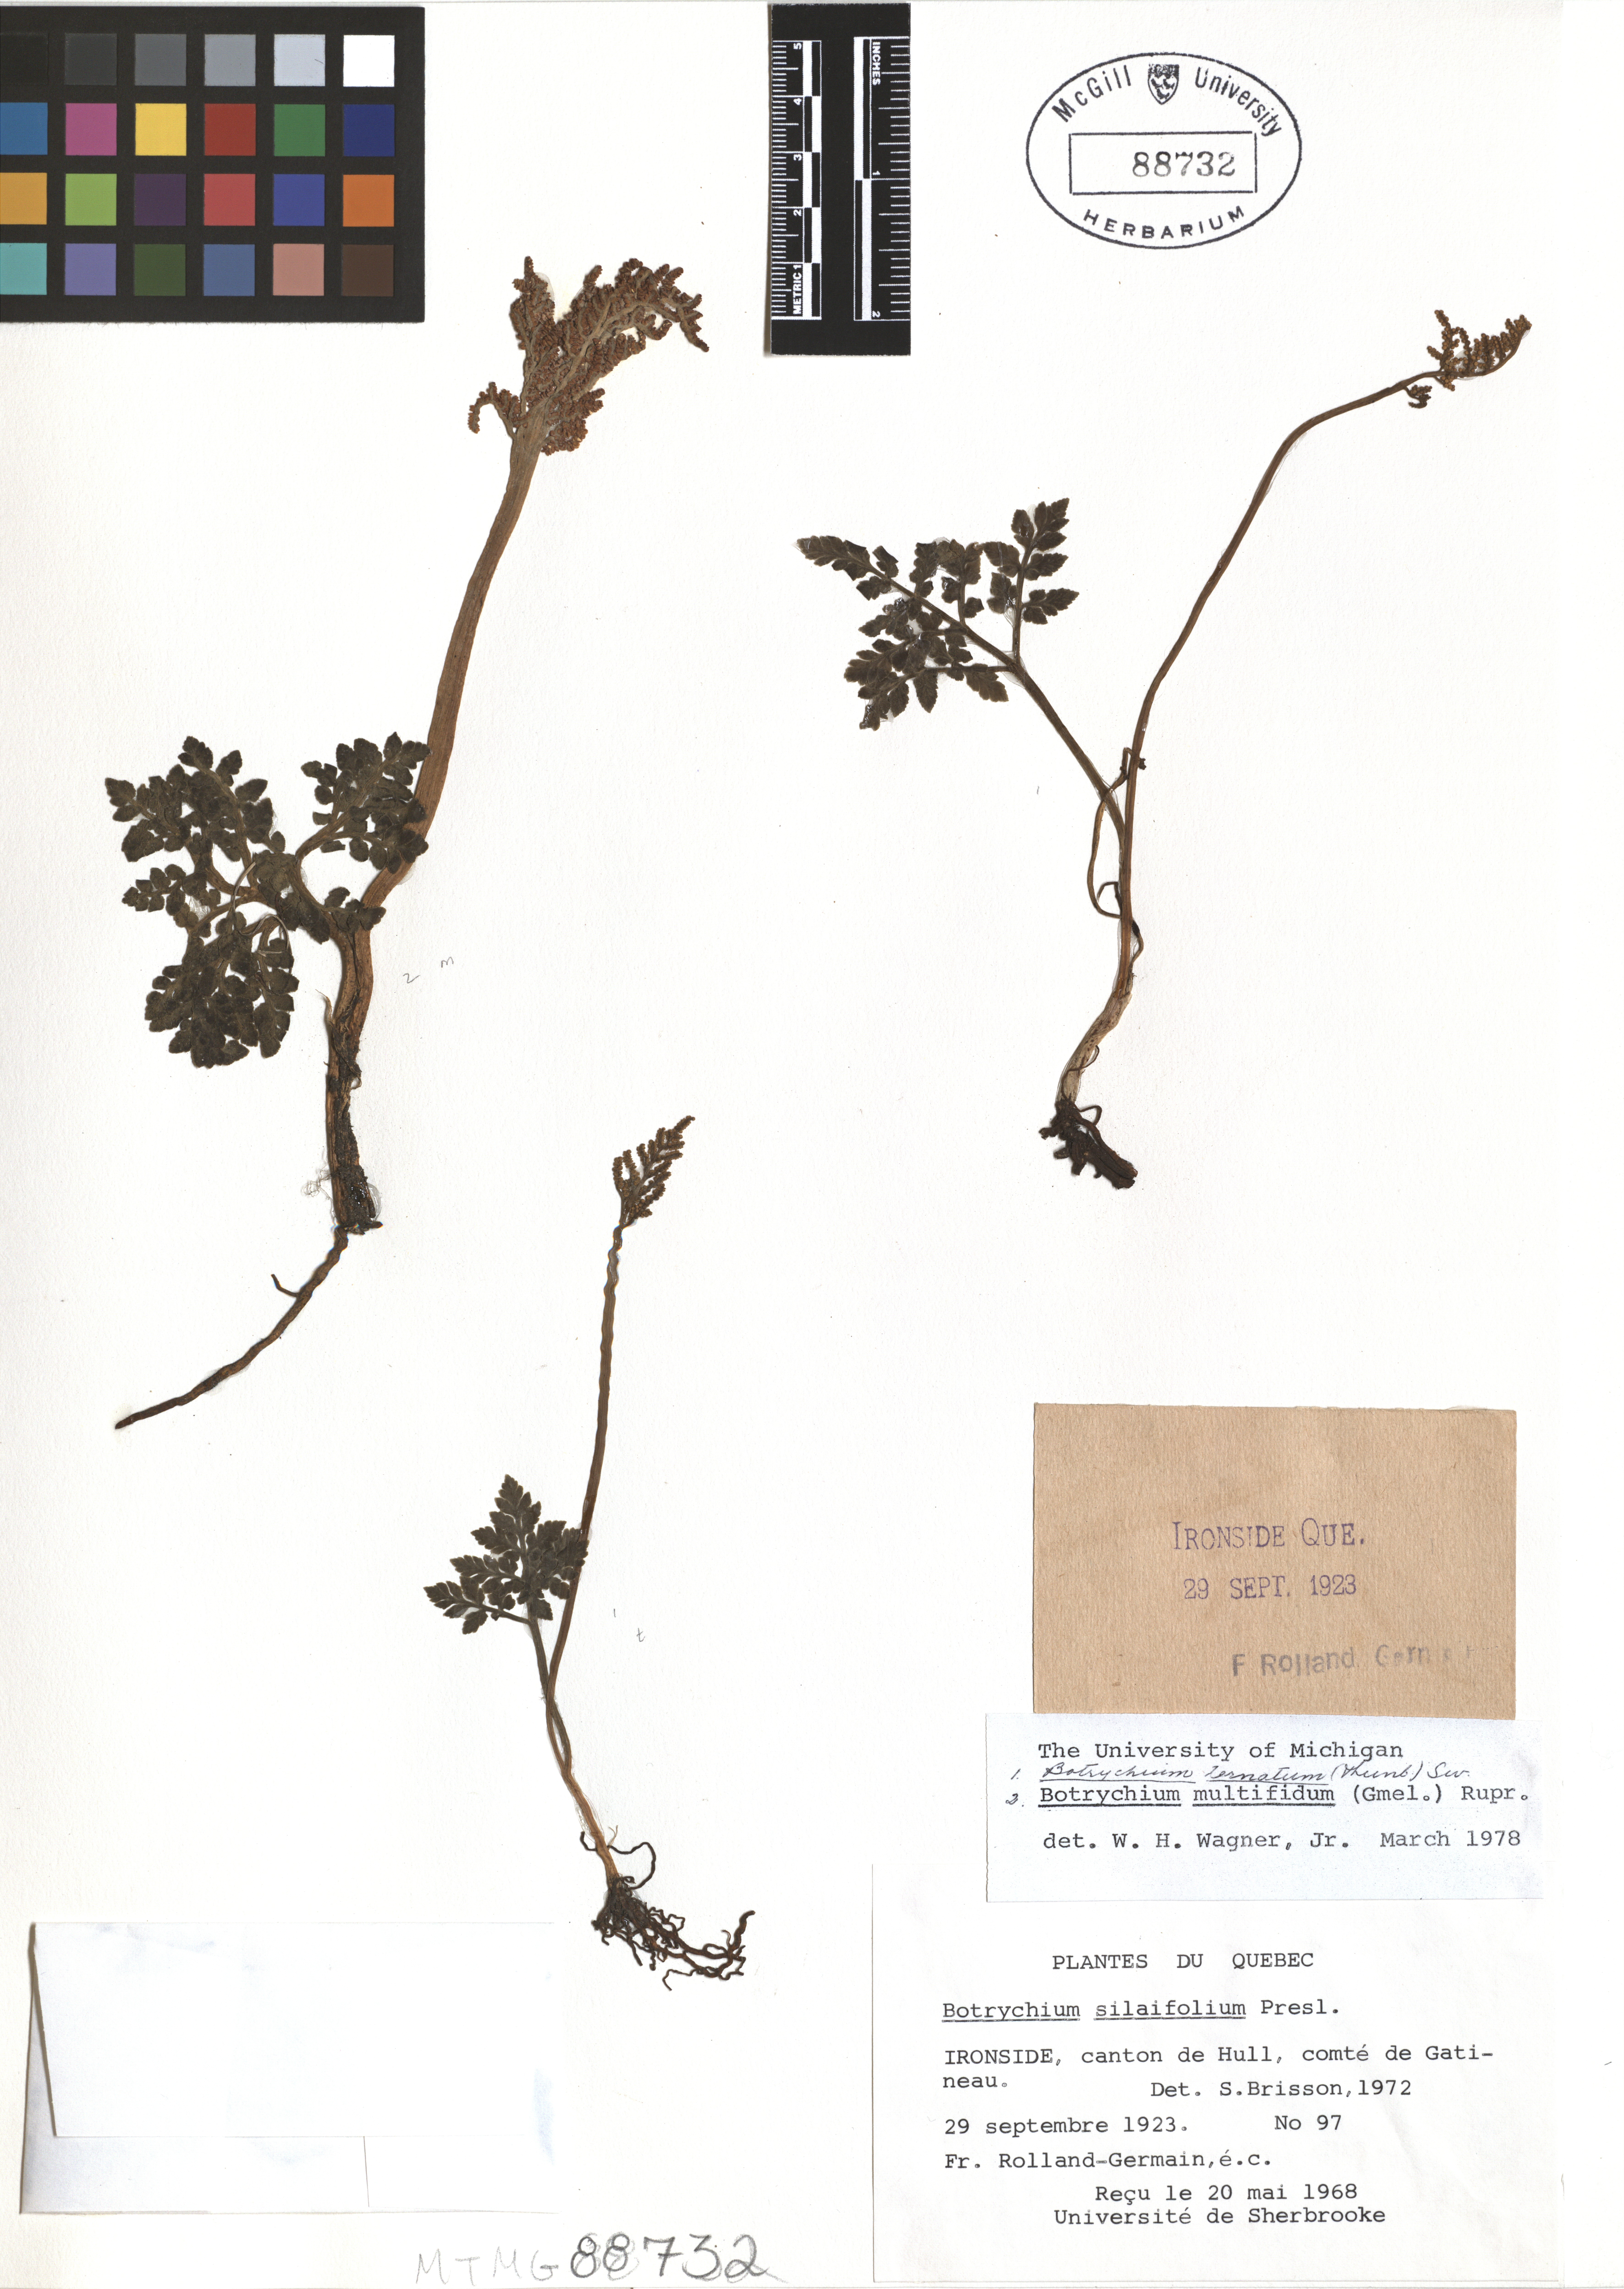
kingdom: Plantae
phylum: Tracheophyta
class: Polypodiopsida
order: Ophioglossales
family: Ophioglossaceae
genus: Sceptridium
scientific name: Sceptridium schaffneri
